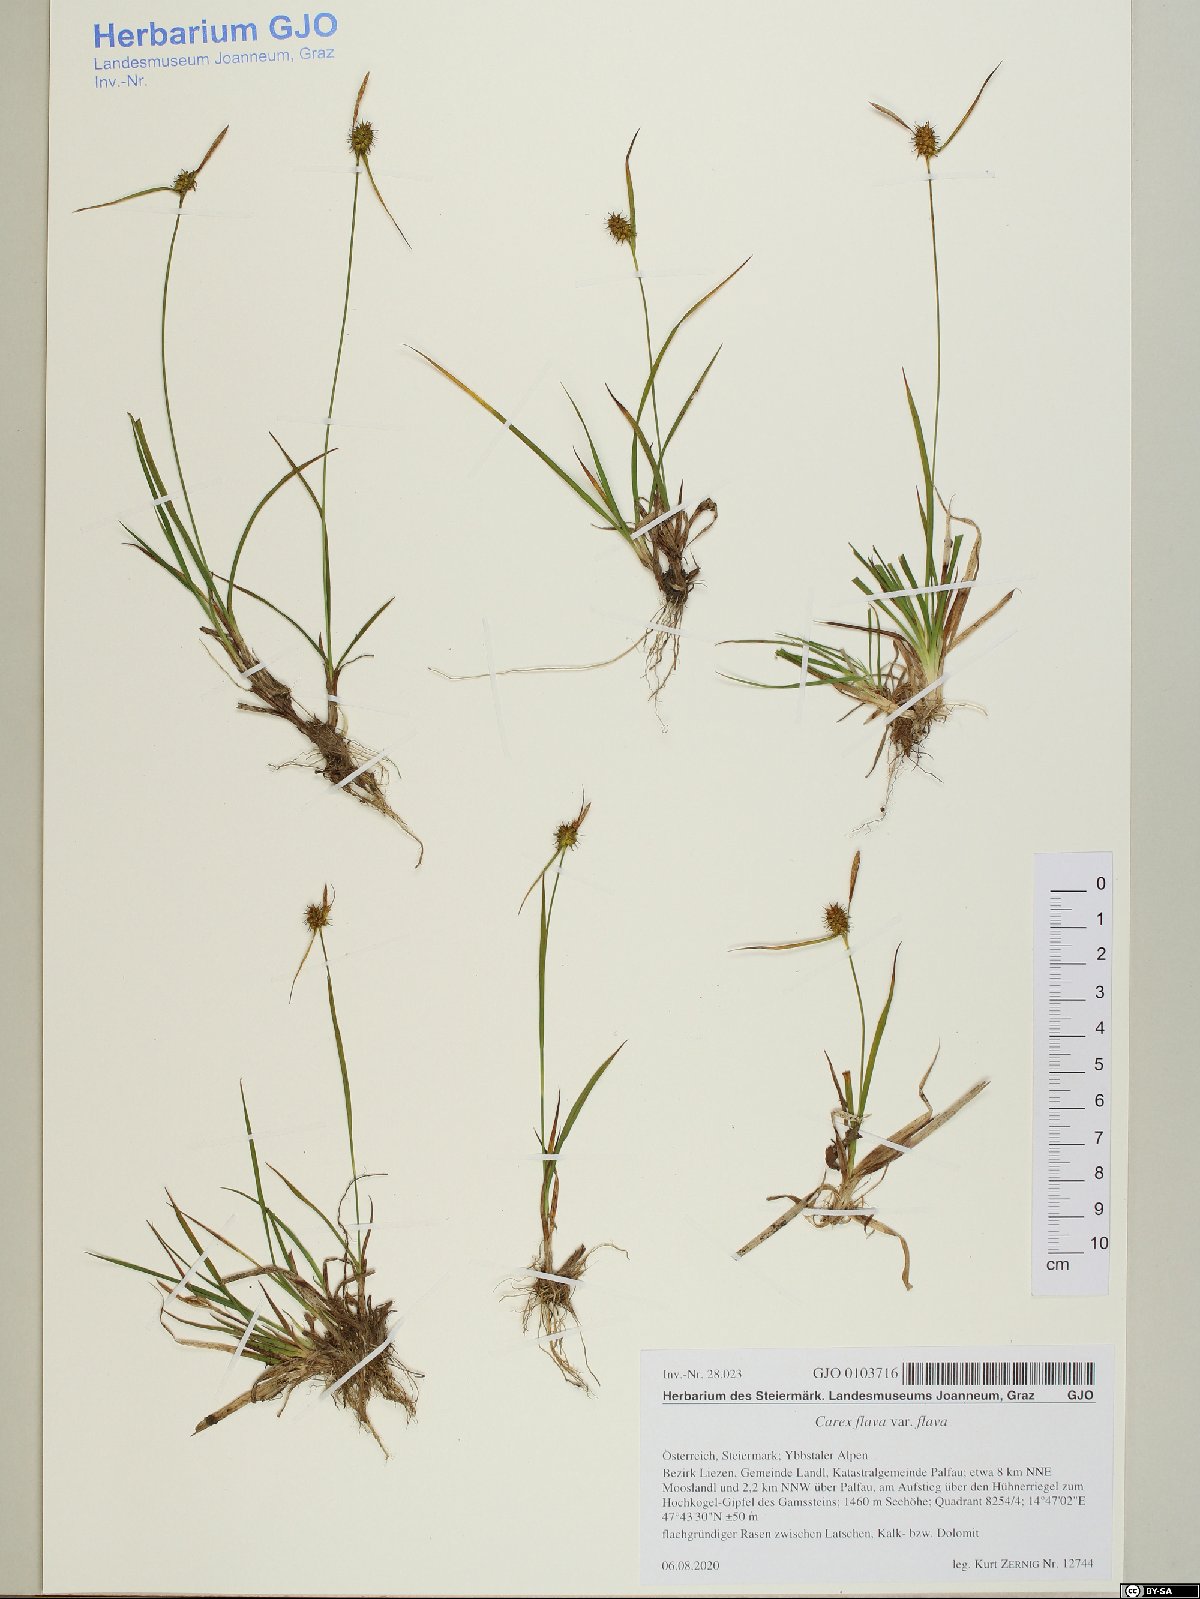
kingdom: Plantae
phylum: Tracheophyta
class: Liliopsida
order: Poales
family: Cyperaceae
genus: Carex
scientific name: Carex flava
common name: Large yellow-sedge
